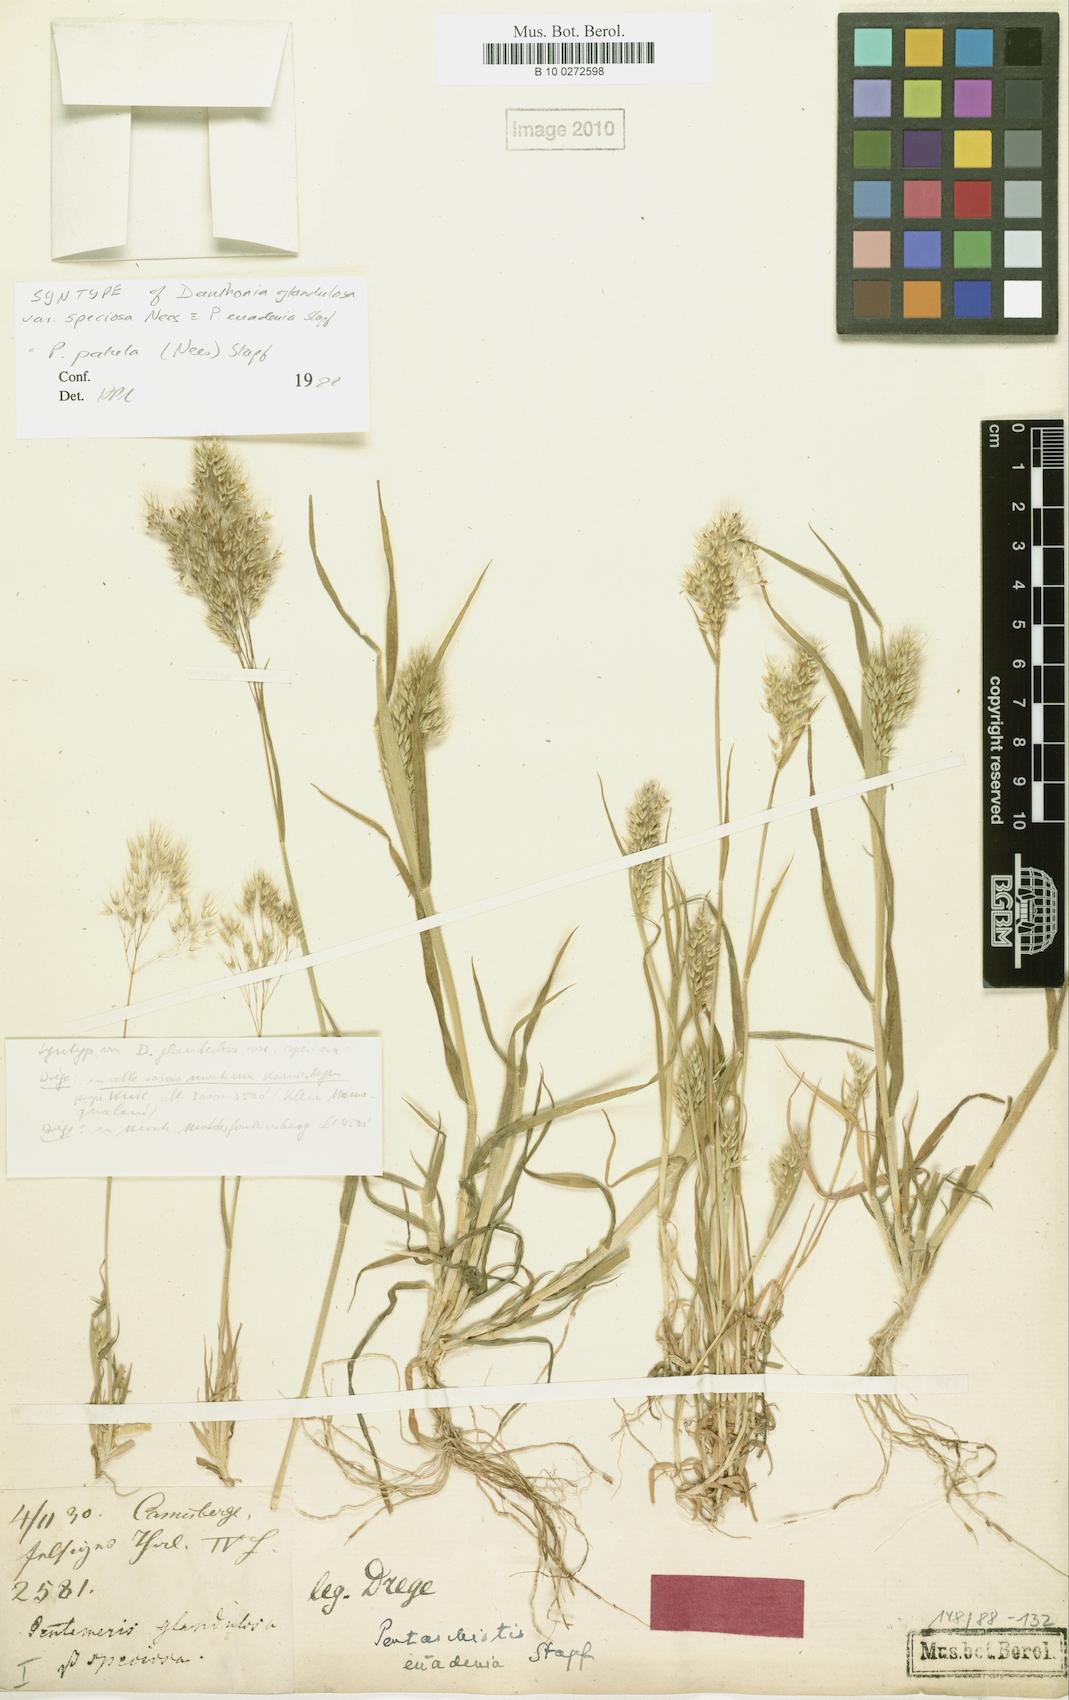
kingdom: Plantae
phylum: Tracheophyta
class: Liliopsida
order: Poales
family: Poaceae
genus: Pentameris
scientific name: Pentameris patula
